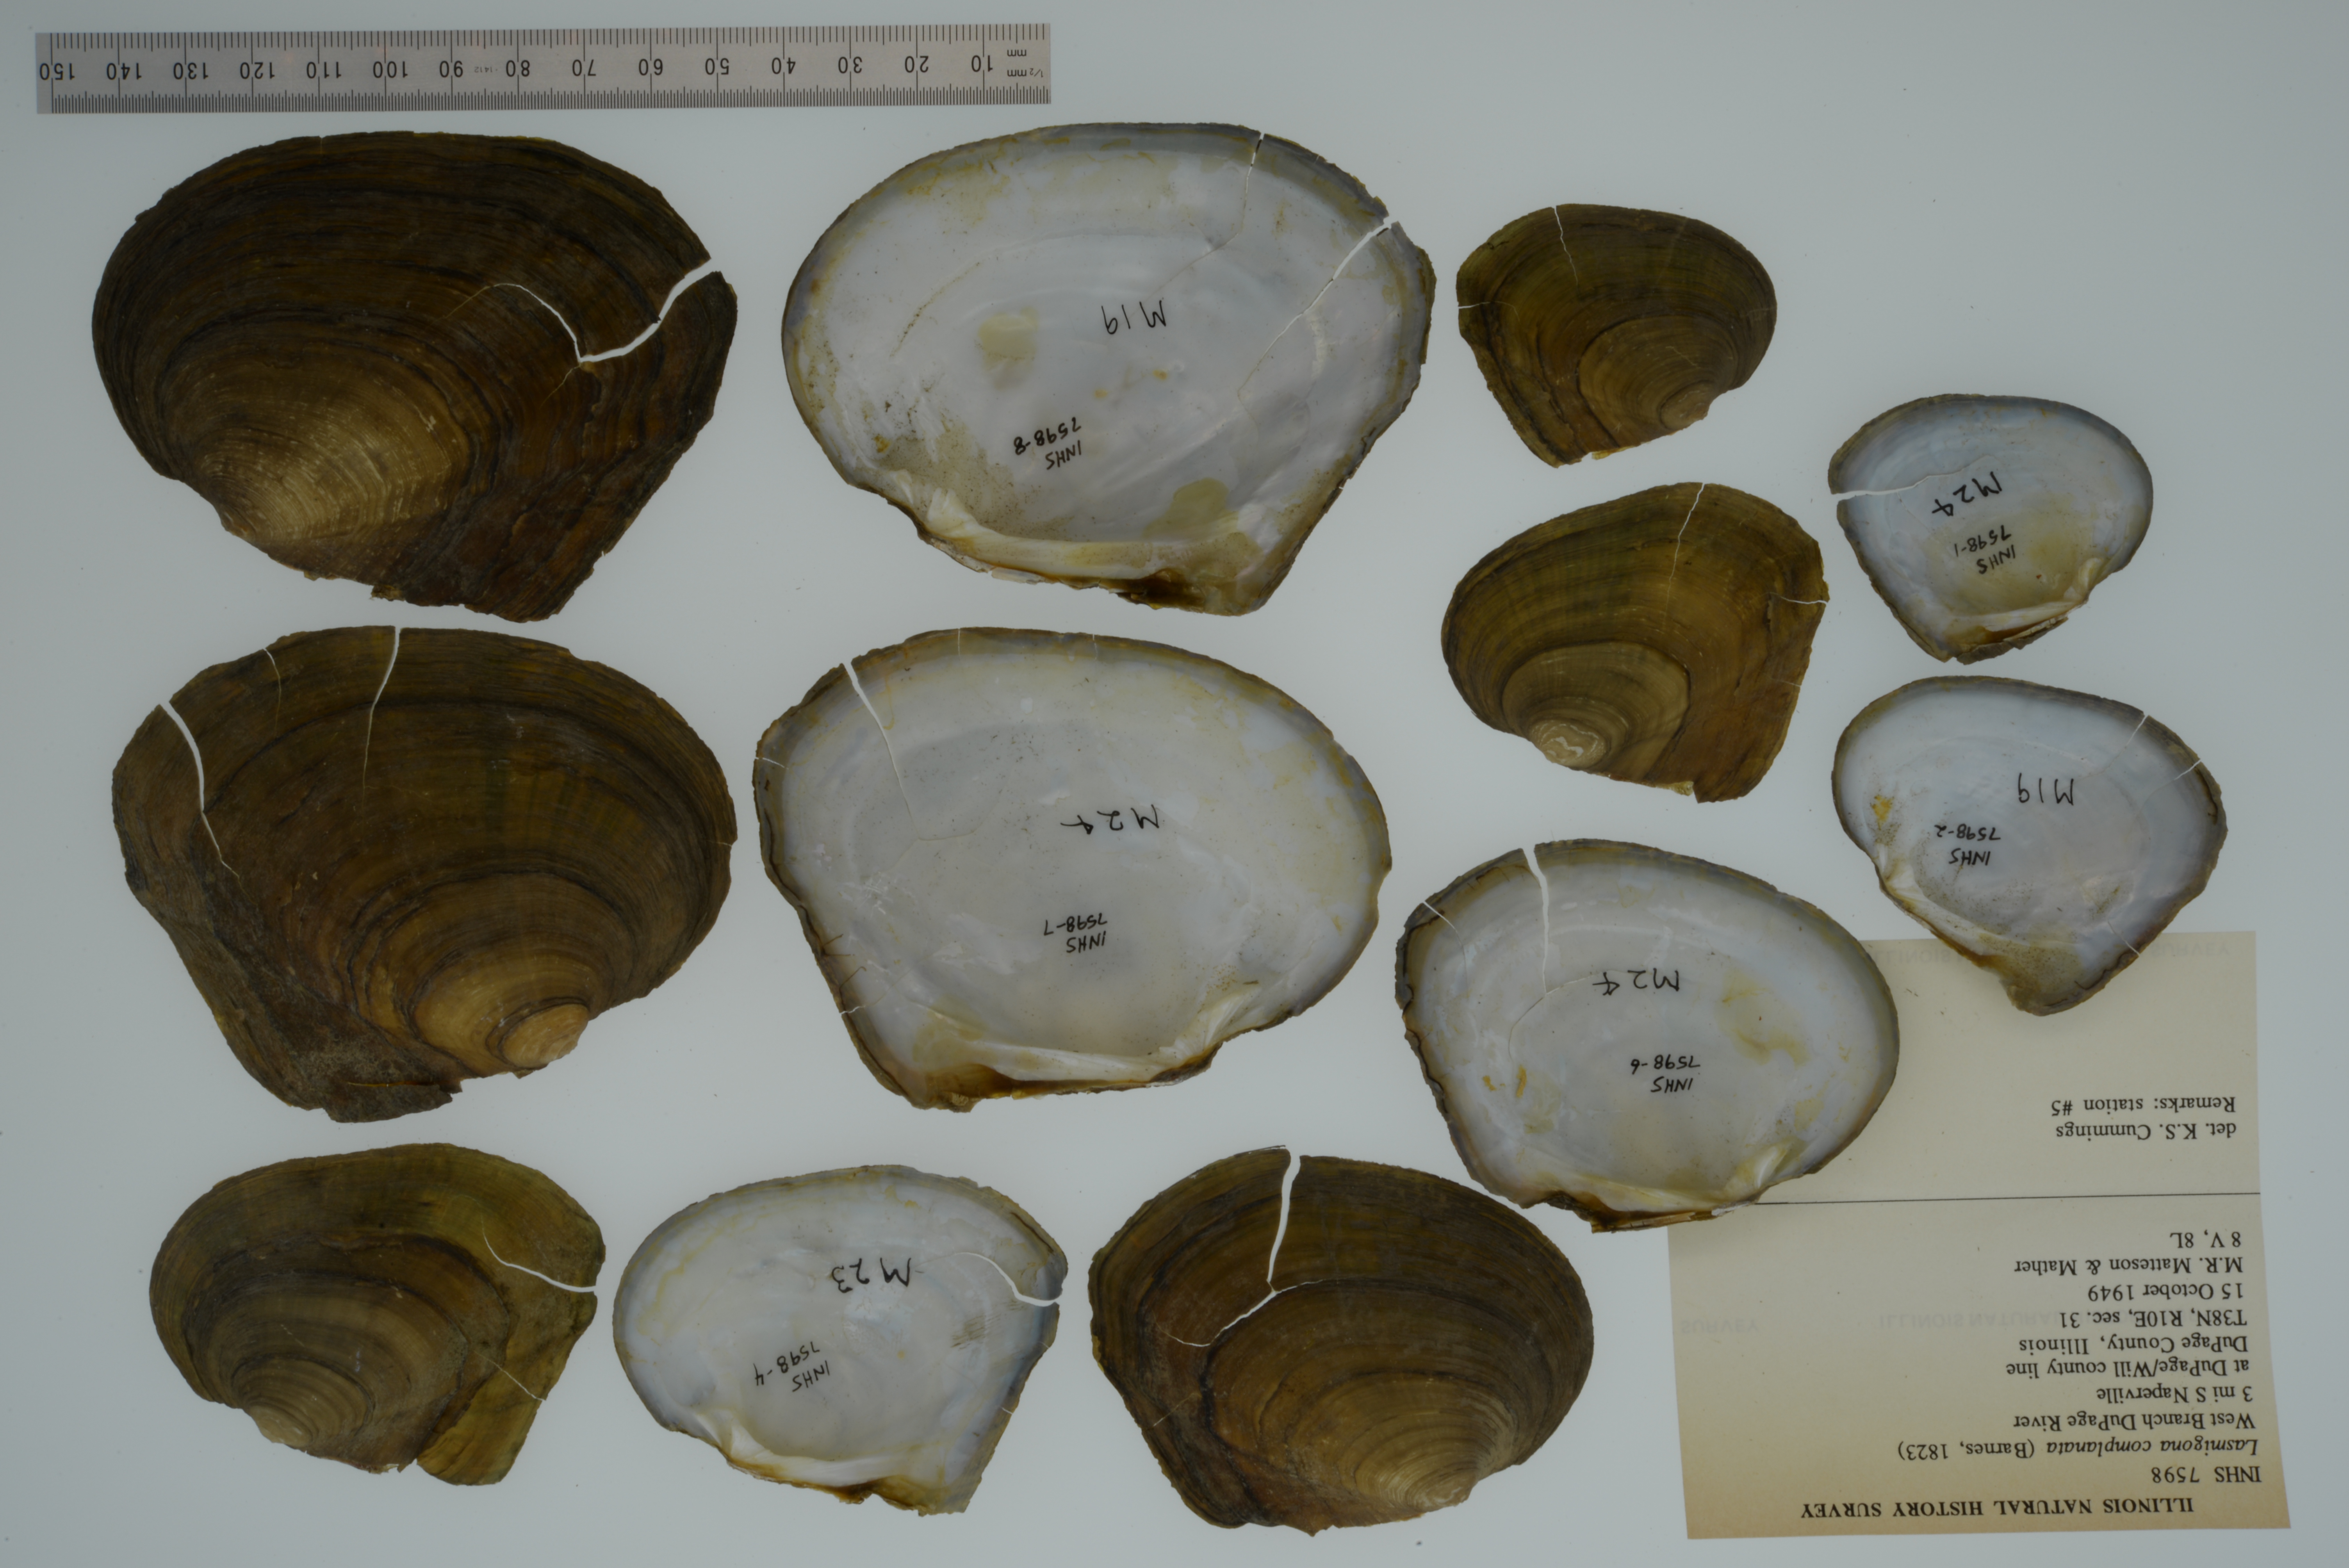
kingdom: Animalia
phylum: Mollusca
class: Bivalvia
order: Unionida
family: Unionidae
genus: Lasmigona
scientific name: Lasmigona complanata
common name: White heelsplitter
